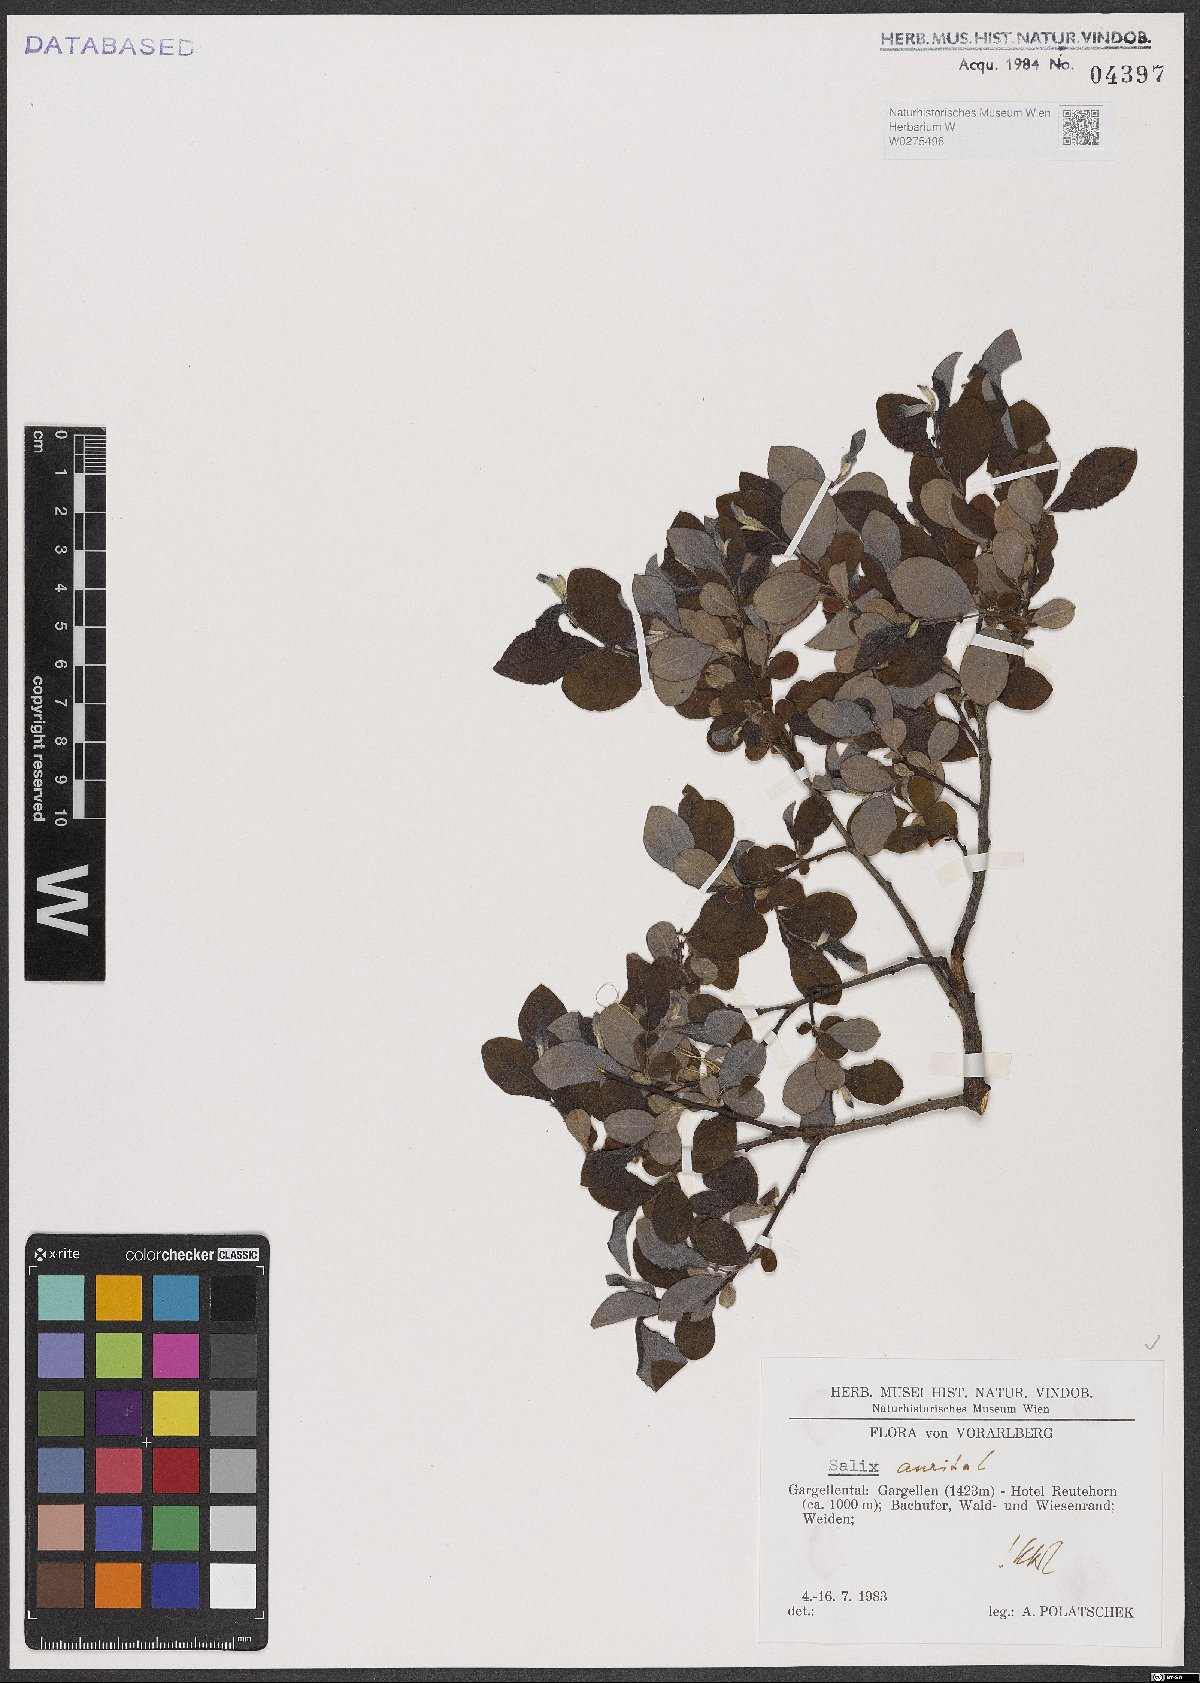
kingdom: Plantae
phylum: Tracheophyta
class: Magnoliopsida
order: Malpighiales
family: Salicaceae
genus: Salix
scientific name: Salix aurita
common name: Eared willow
